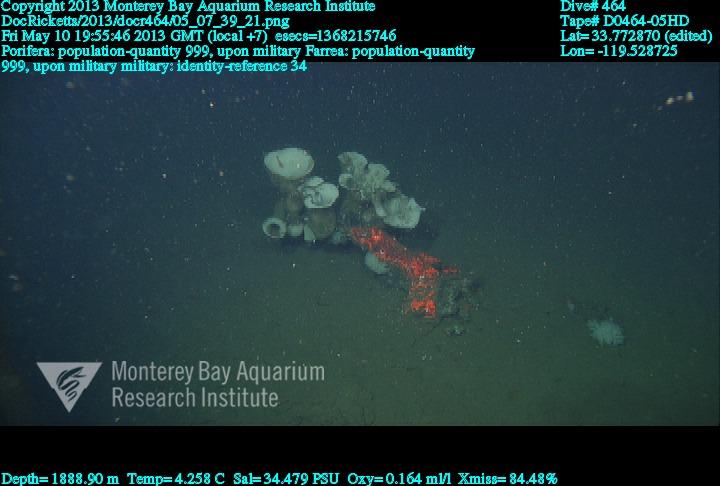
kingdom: Animalia
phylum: Porifera
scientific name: Porifera
